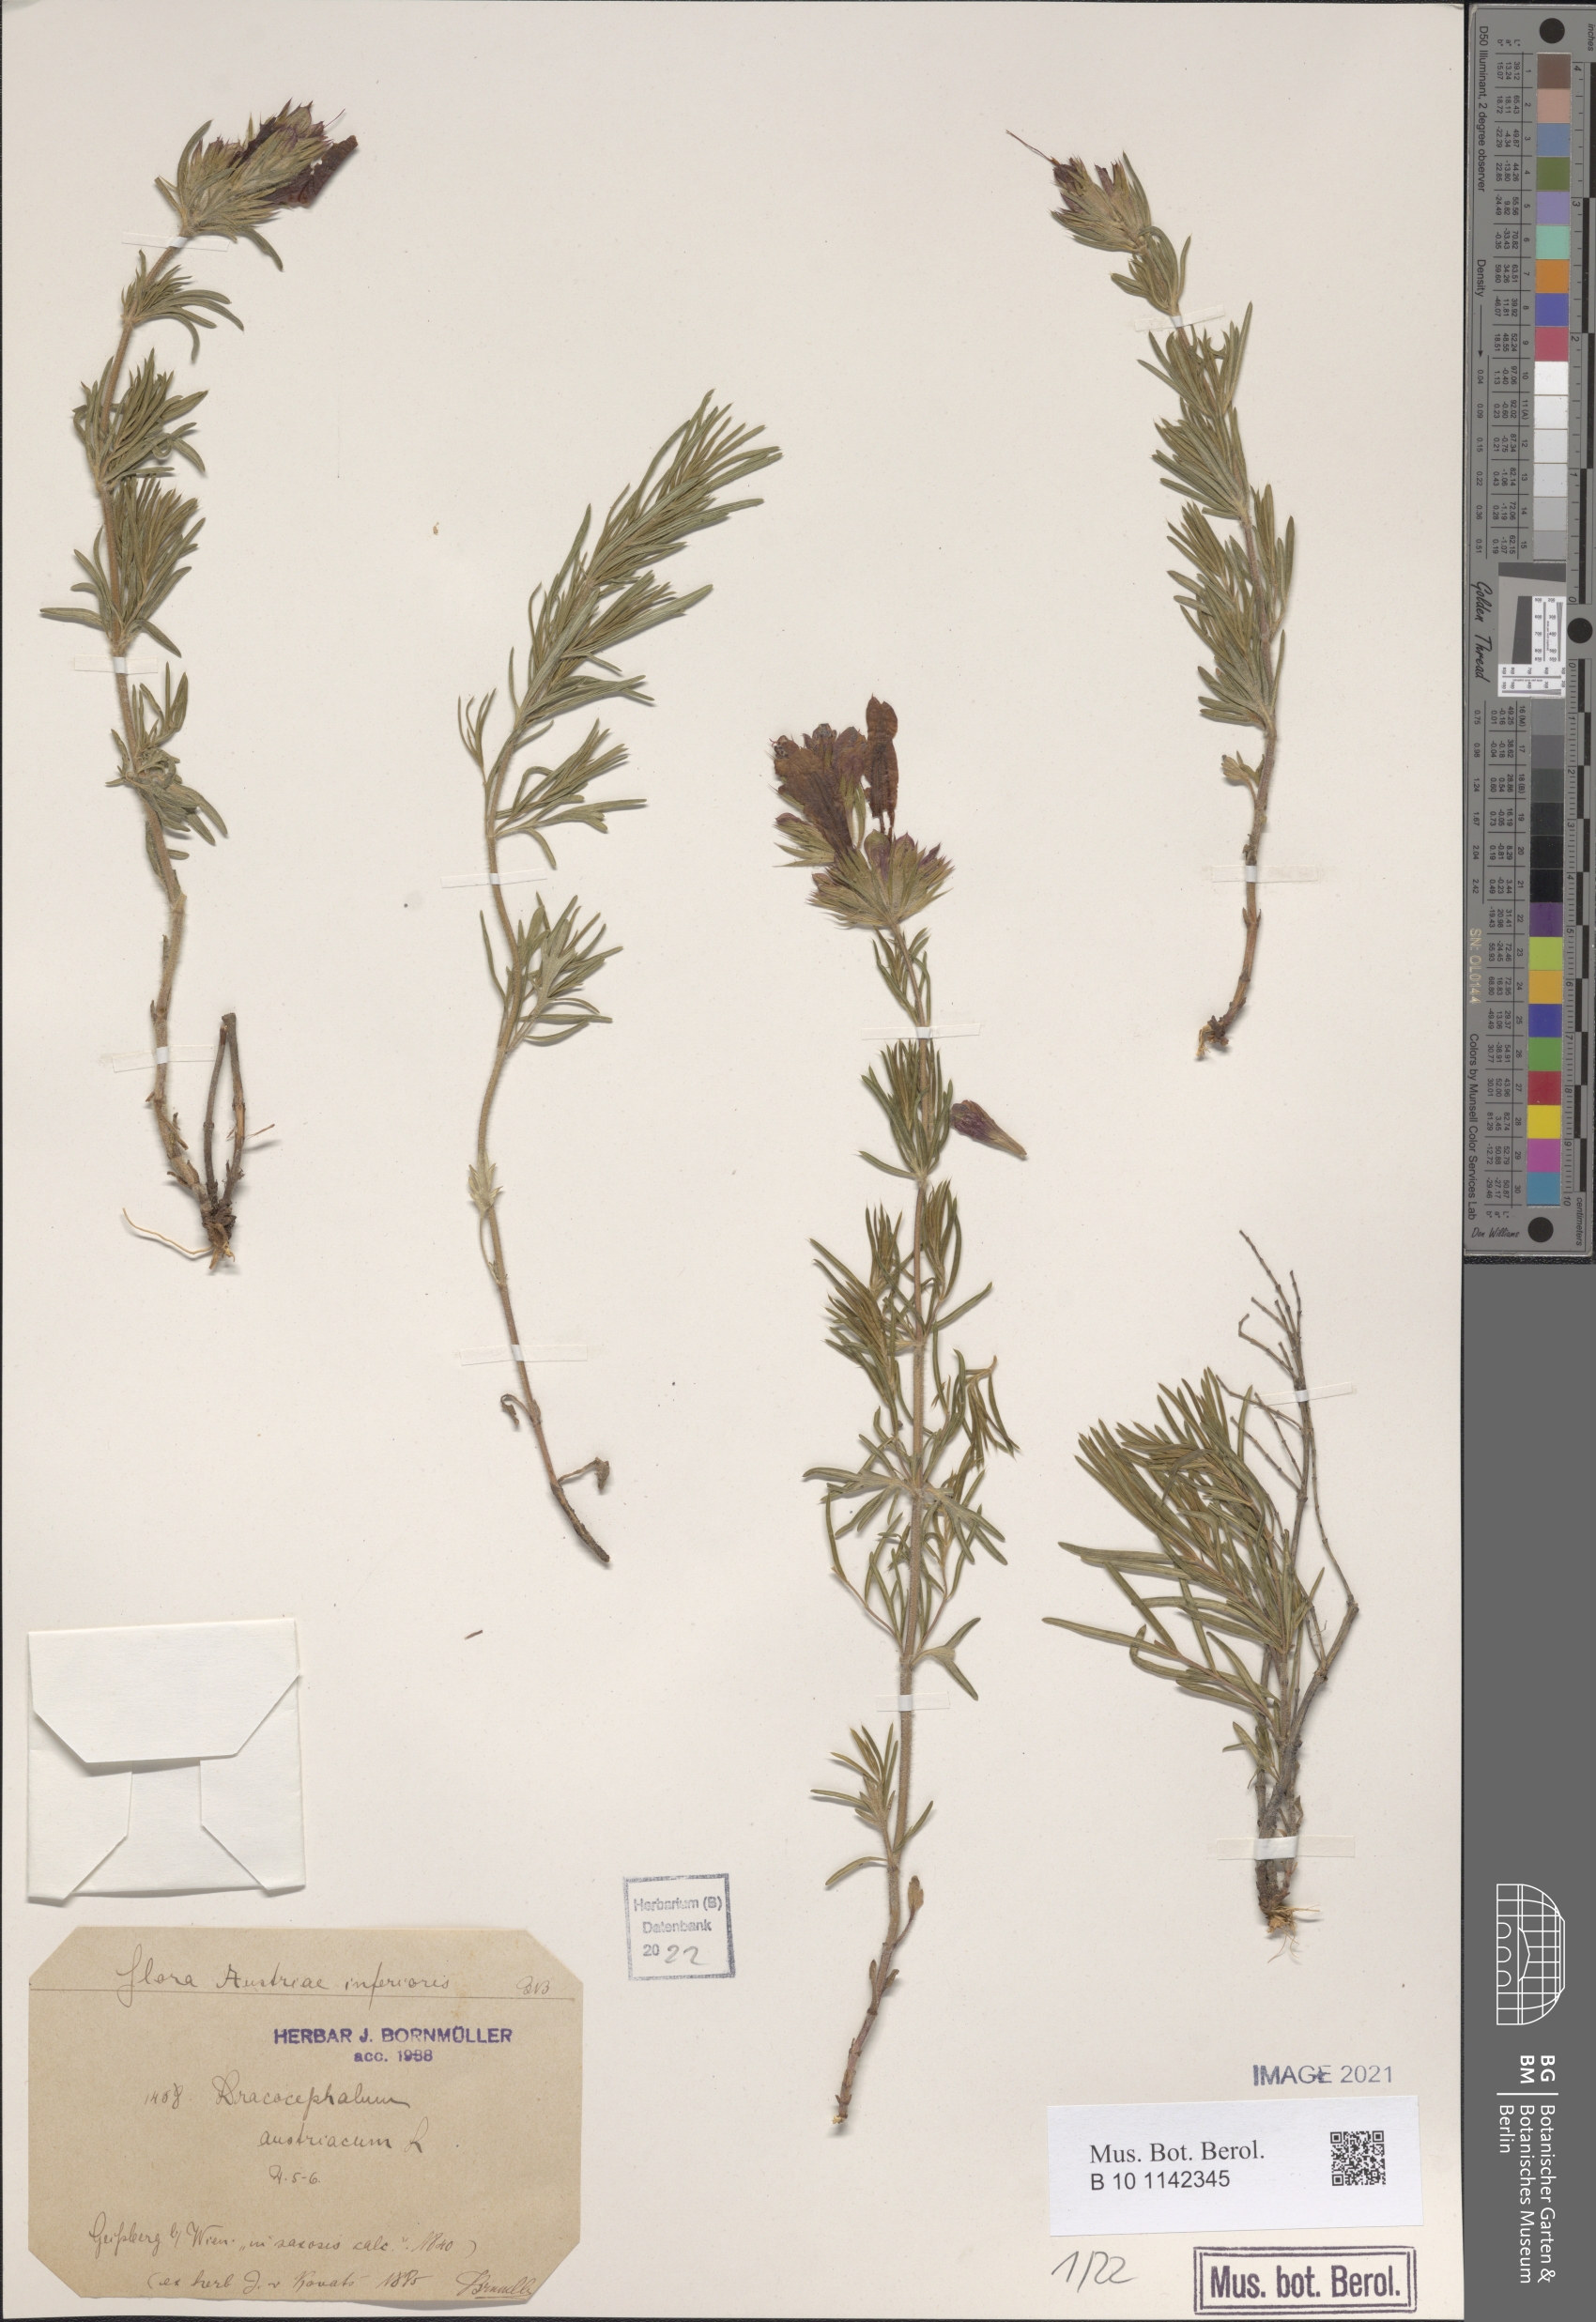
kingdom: Plantae
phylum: Tracheophyta
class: Magnoliopsida
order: Lamiales
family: Lamiaceae
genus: Dracocephalum
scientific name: Dracocephalum austriacum
